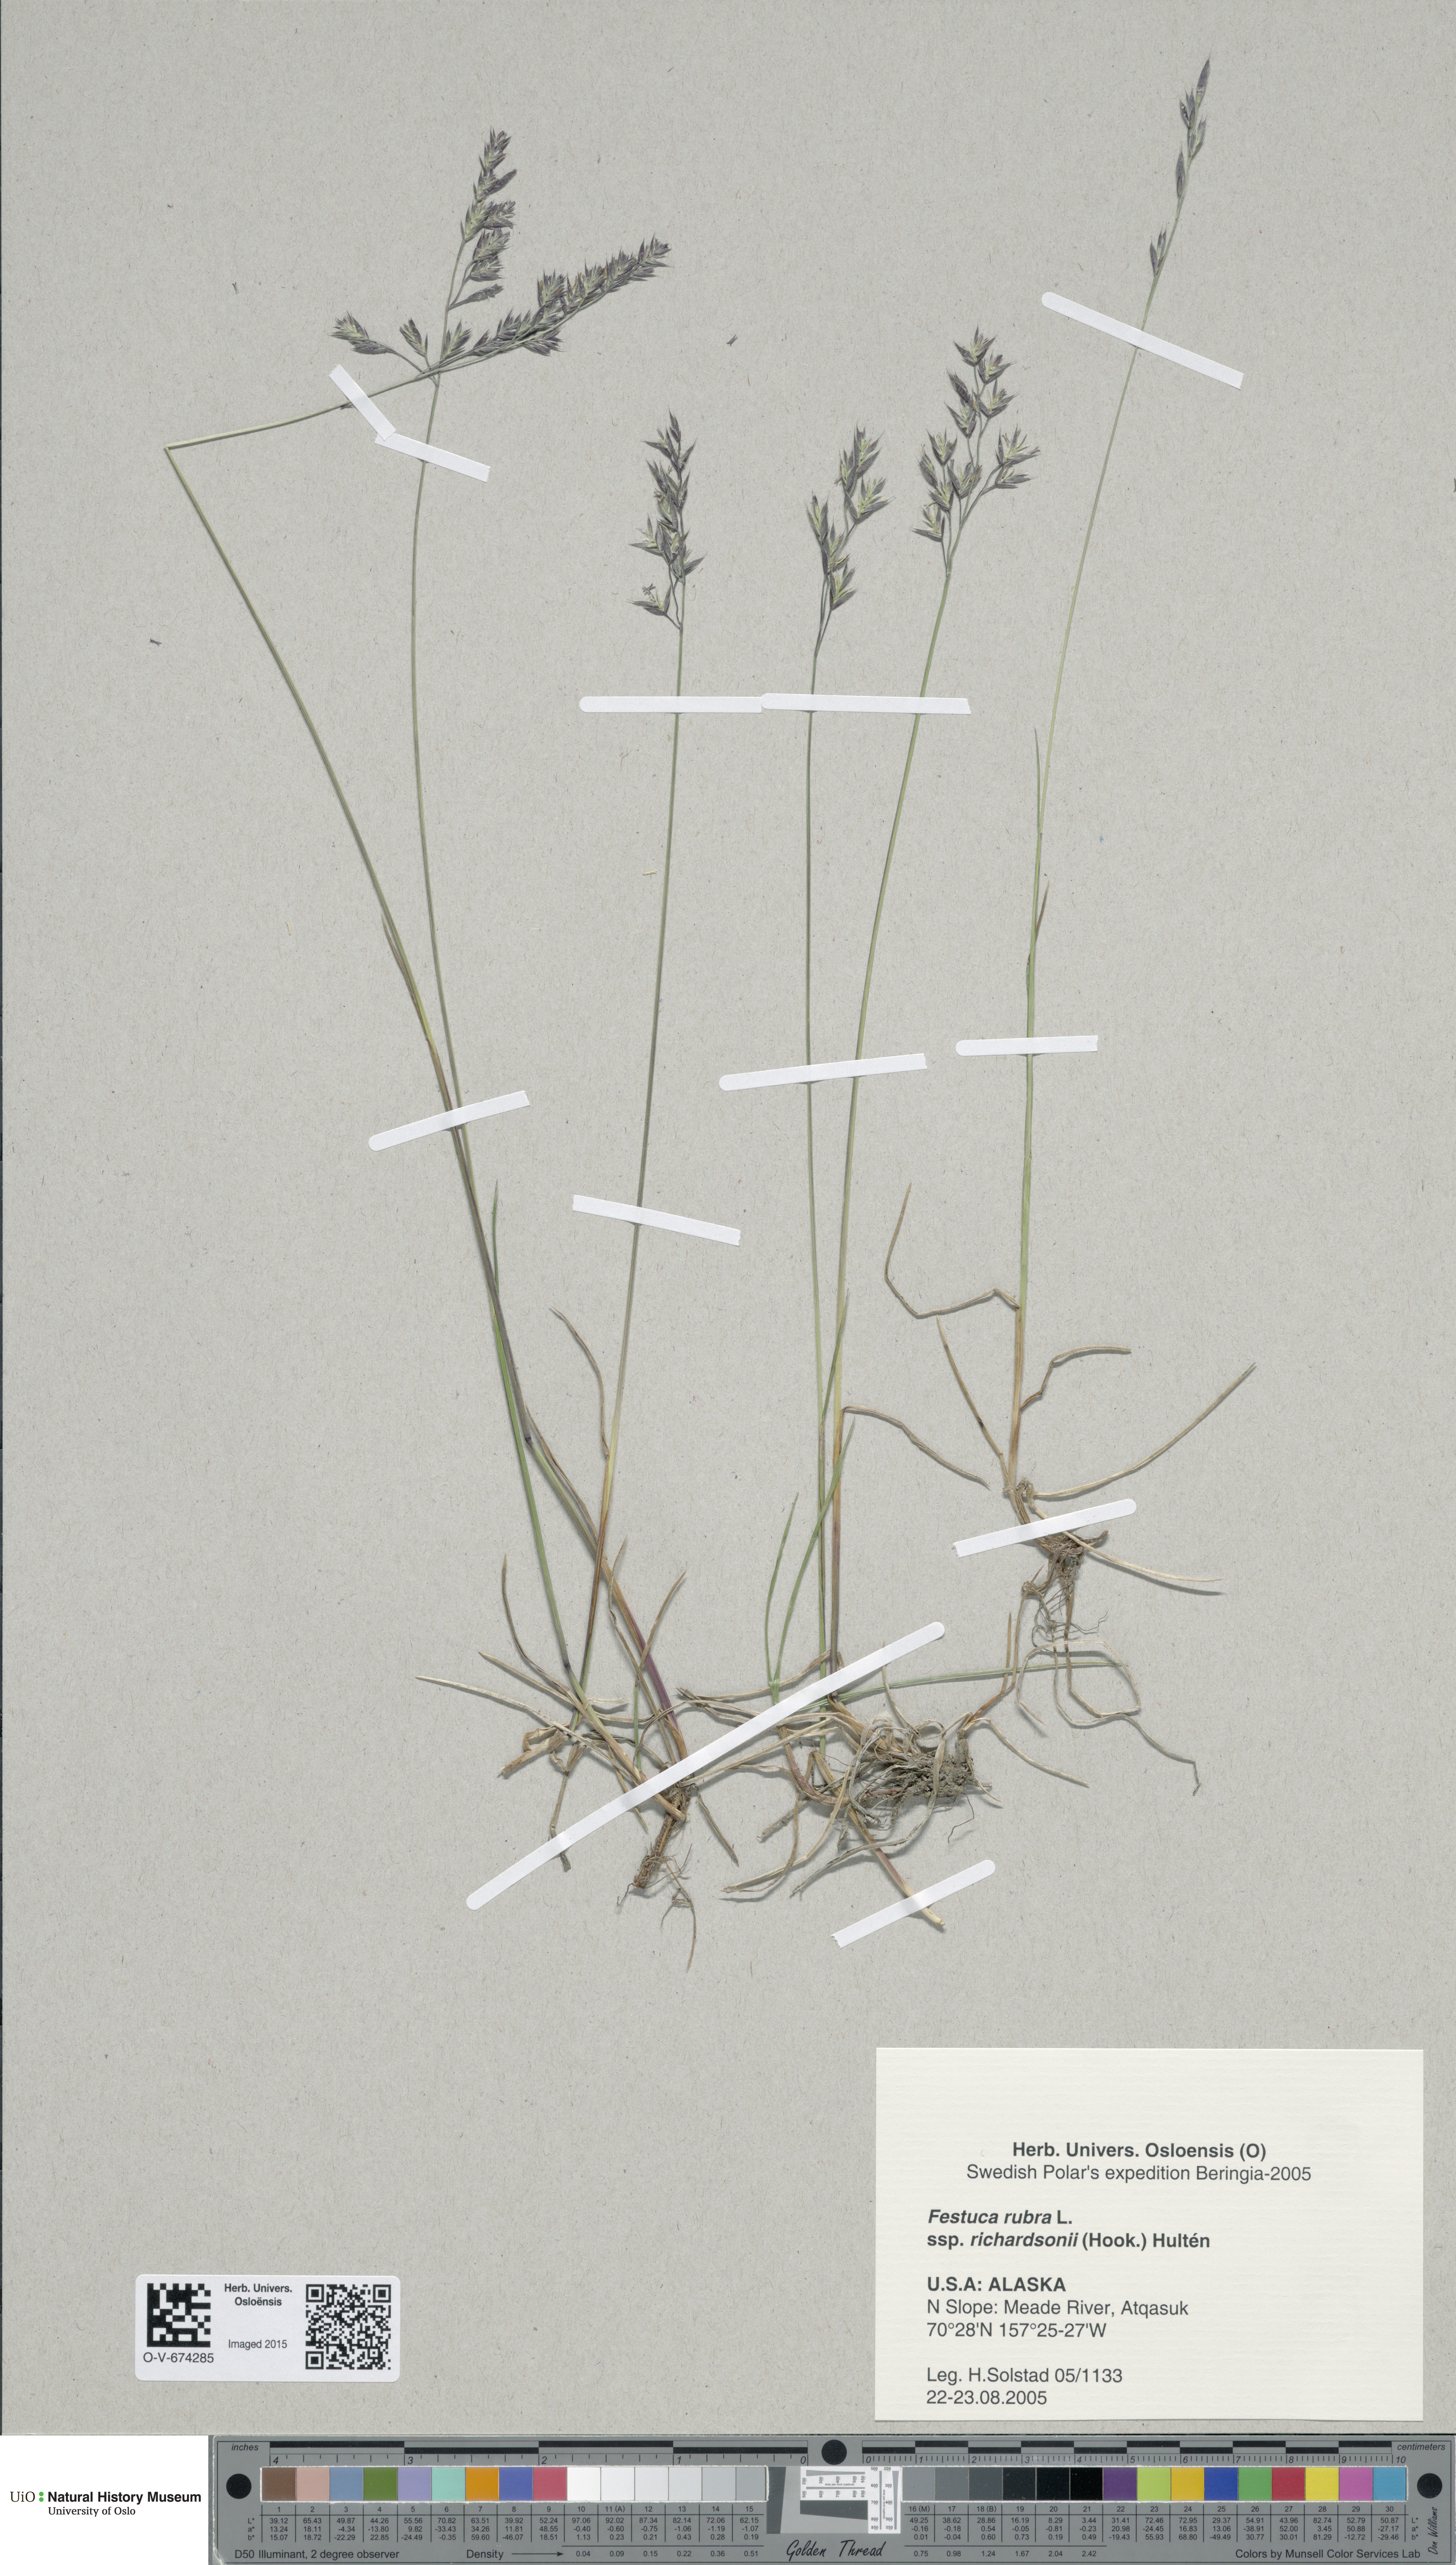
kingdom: Plantae
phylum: Tracheophyta
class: Liliopsida
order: Poales
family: Poaceae
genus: Festuca
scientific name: Festuca richardsonii
